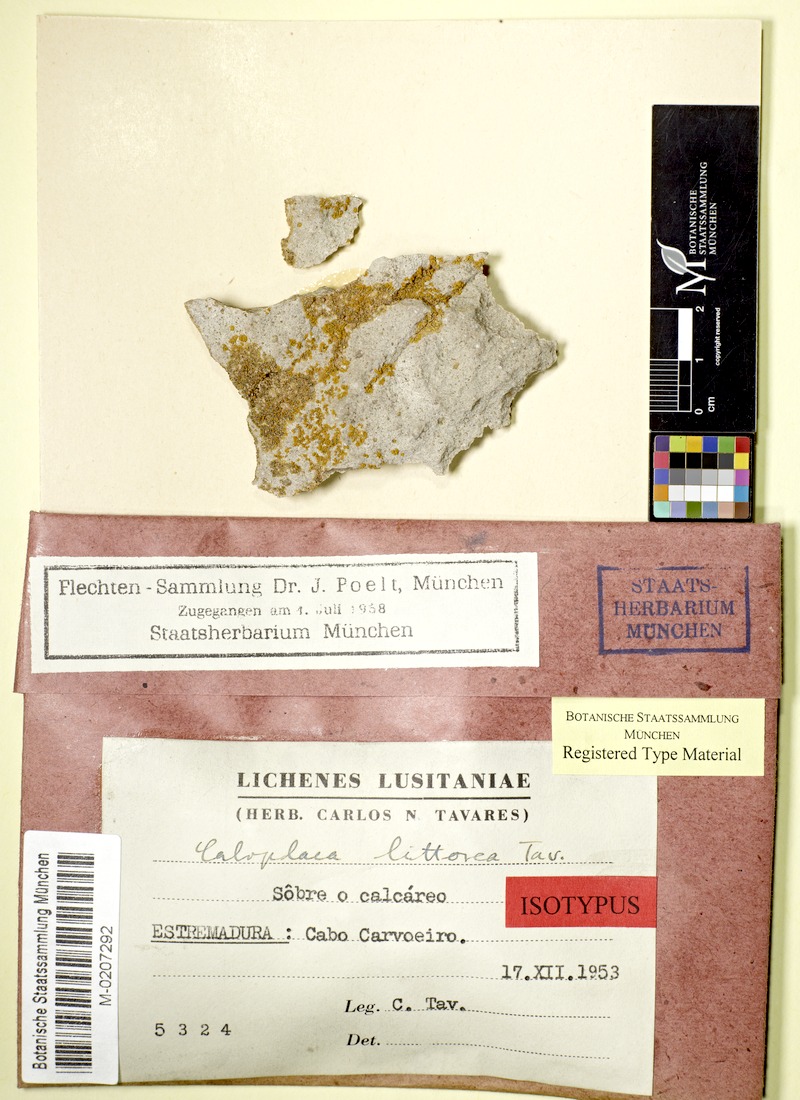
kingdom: Fungi
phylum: Ascomycota
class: Lecanoromycetes
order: Teloschistales
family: Teloschistaceae
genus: Caloplaca
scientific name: Caloplaca littorea
